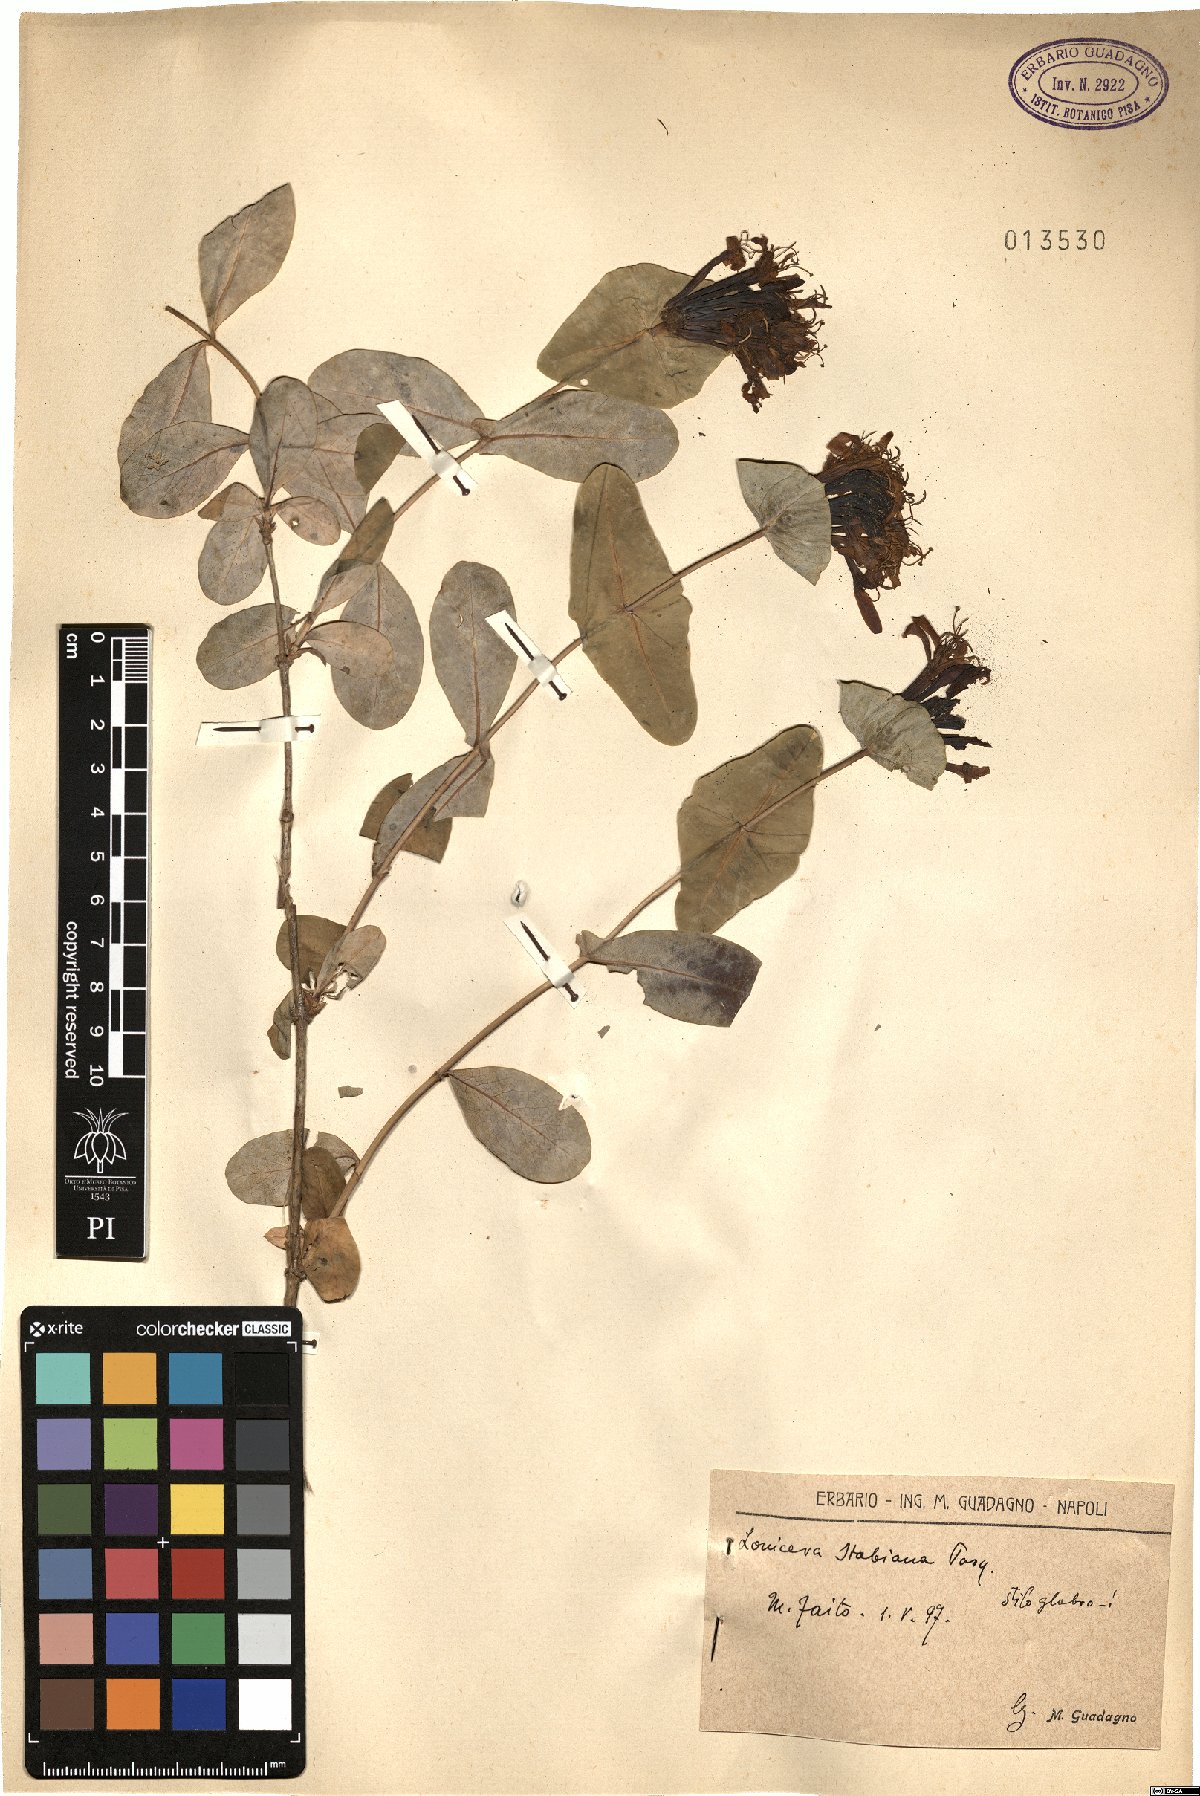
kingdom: Plantae
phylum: Tracheophyta
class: Magnoliopsida
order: Dipsacales
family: Caprifoliaceae
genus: Lonicera
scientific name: Lonicera stabiana
